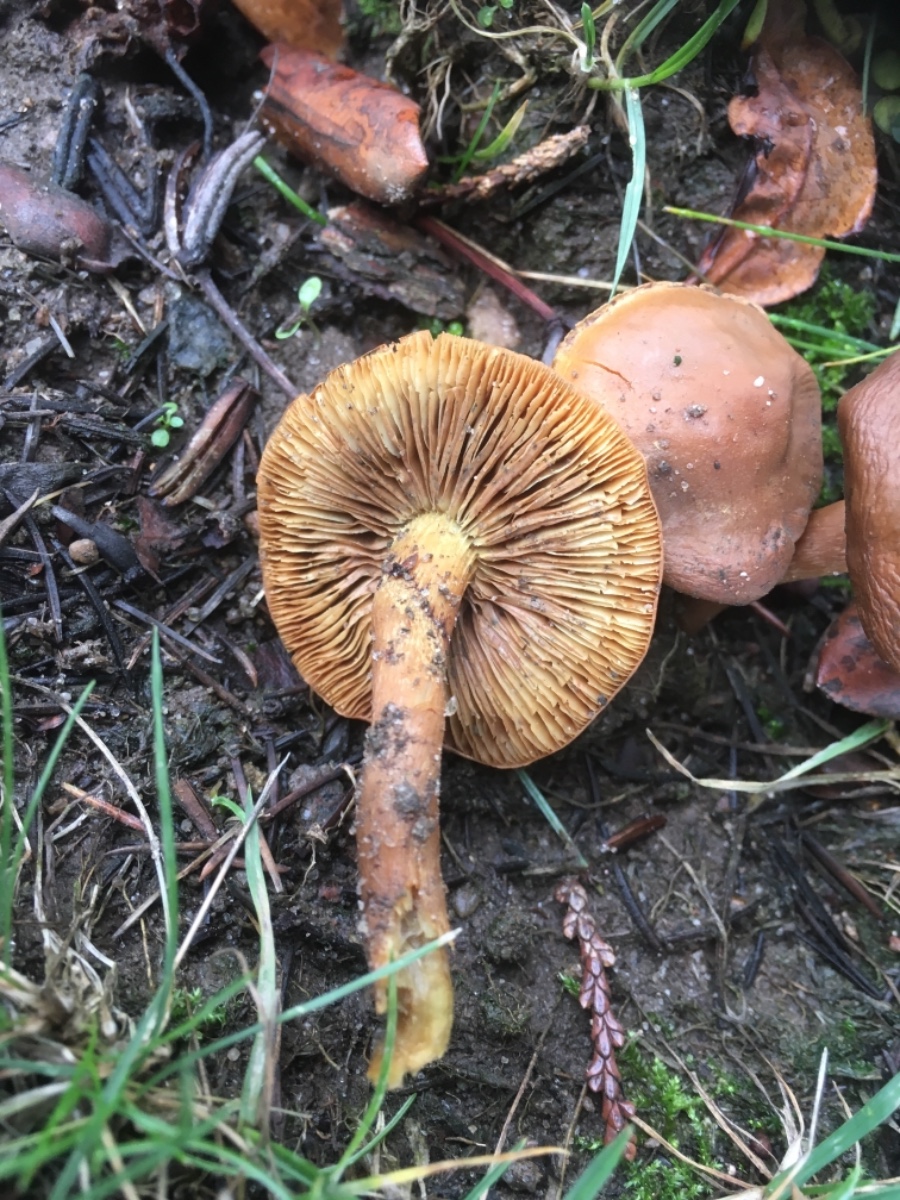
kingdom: Fungi
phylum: Basidiomycota
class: Agaricomycetes
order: Agaricales
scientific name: Agaricales
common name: champignonordenen
